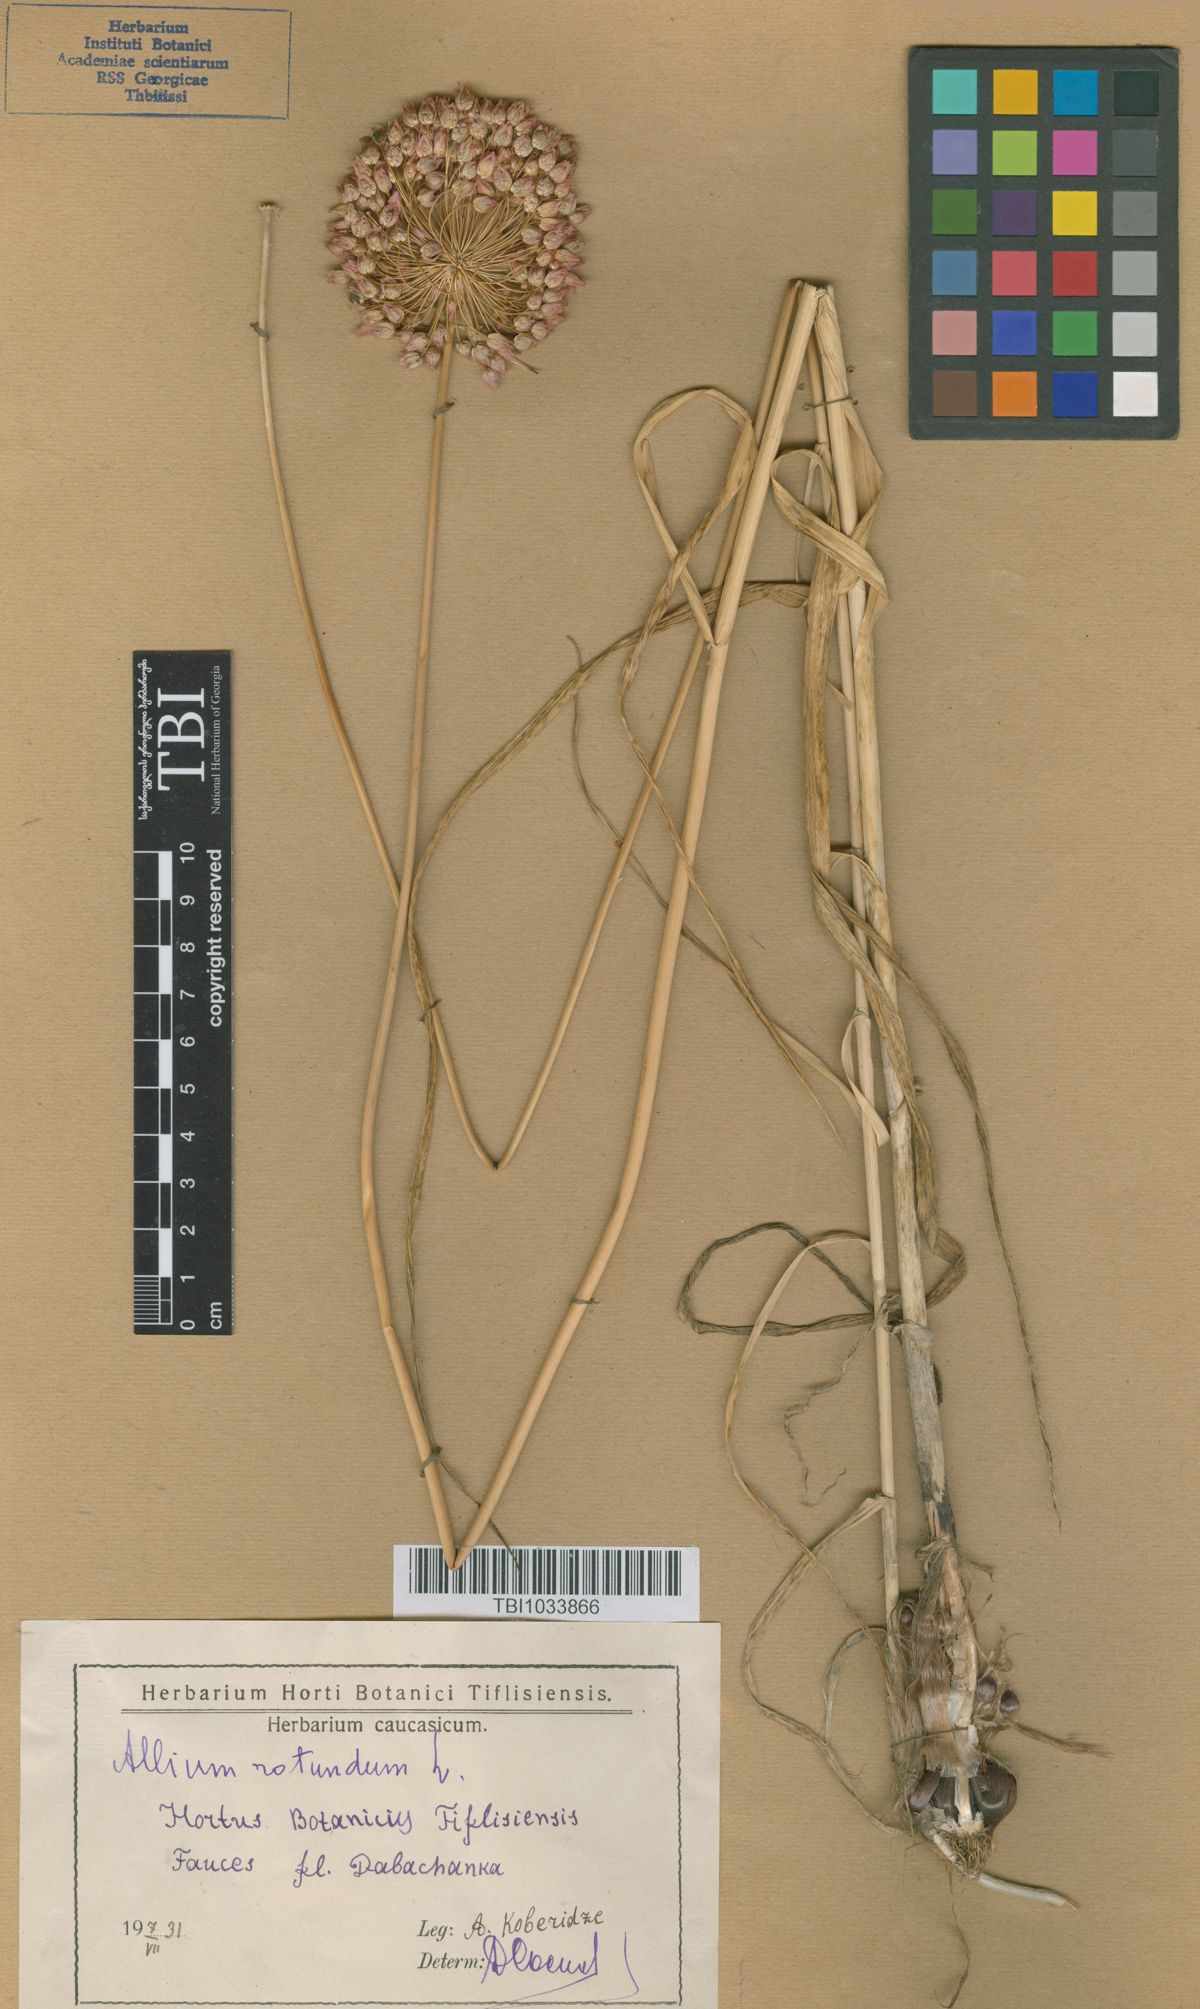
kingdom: Plantae
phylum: Tracheophyta
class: Liliopsida
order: Asparagales
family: Amaryllidaceae
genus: Allium
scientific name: Allium rotundum
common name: Sand leek
